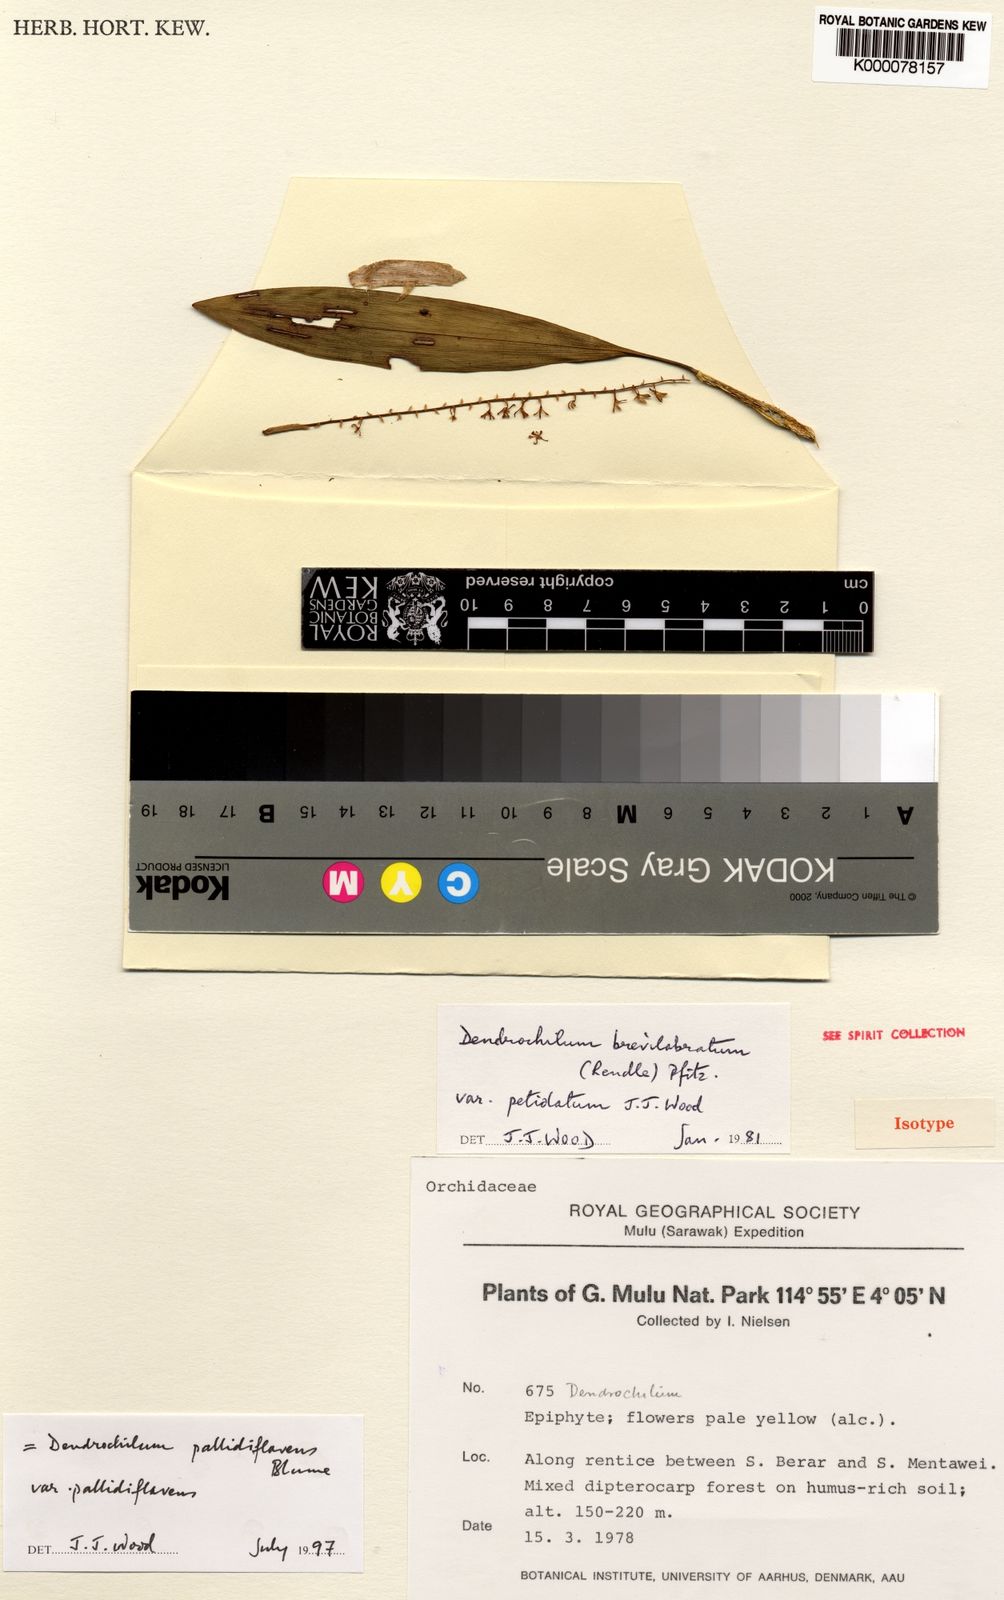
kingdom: Plantae
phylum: Tracheophyta
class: Liliopsida
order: Asparagales
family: Orchidaceae
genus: Coelogyne
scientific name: Coelogyne pallidiflavens
